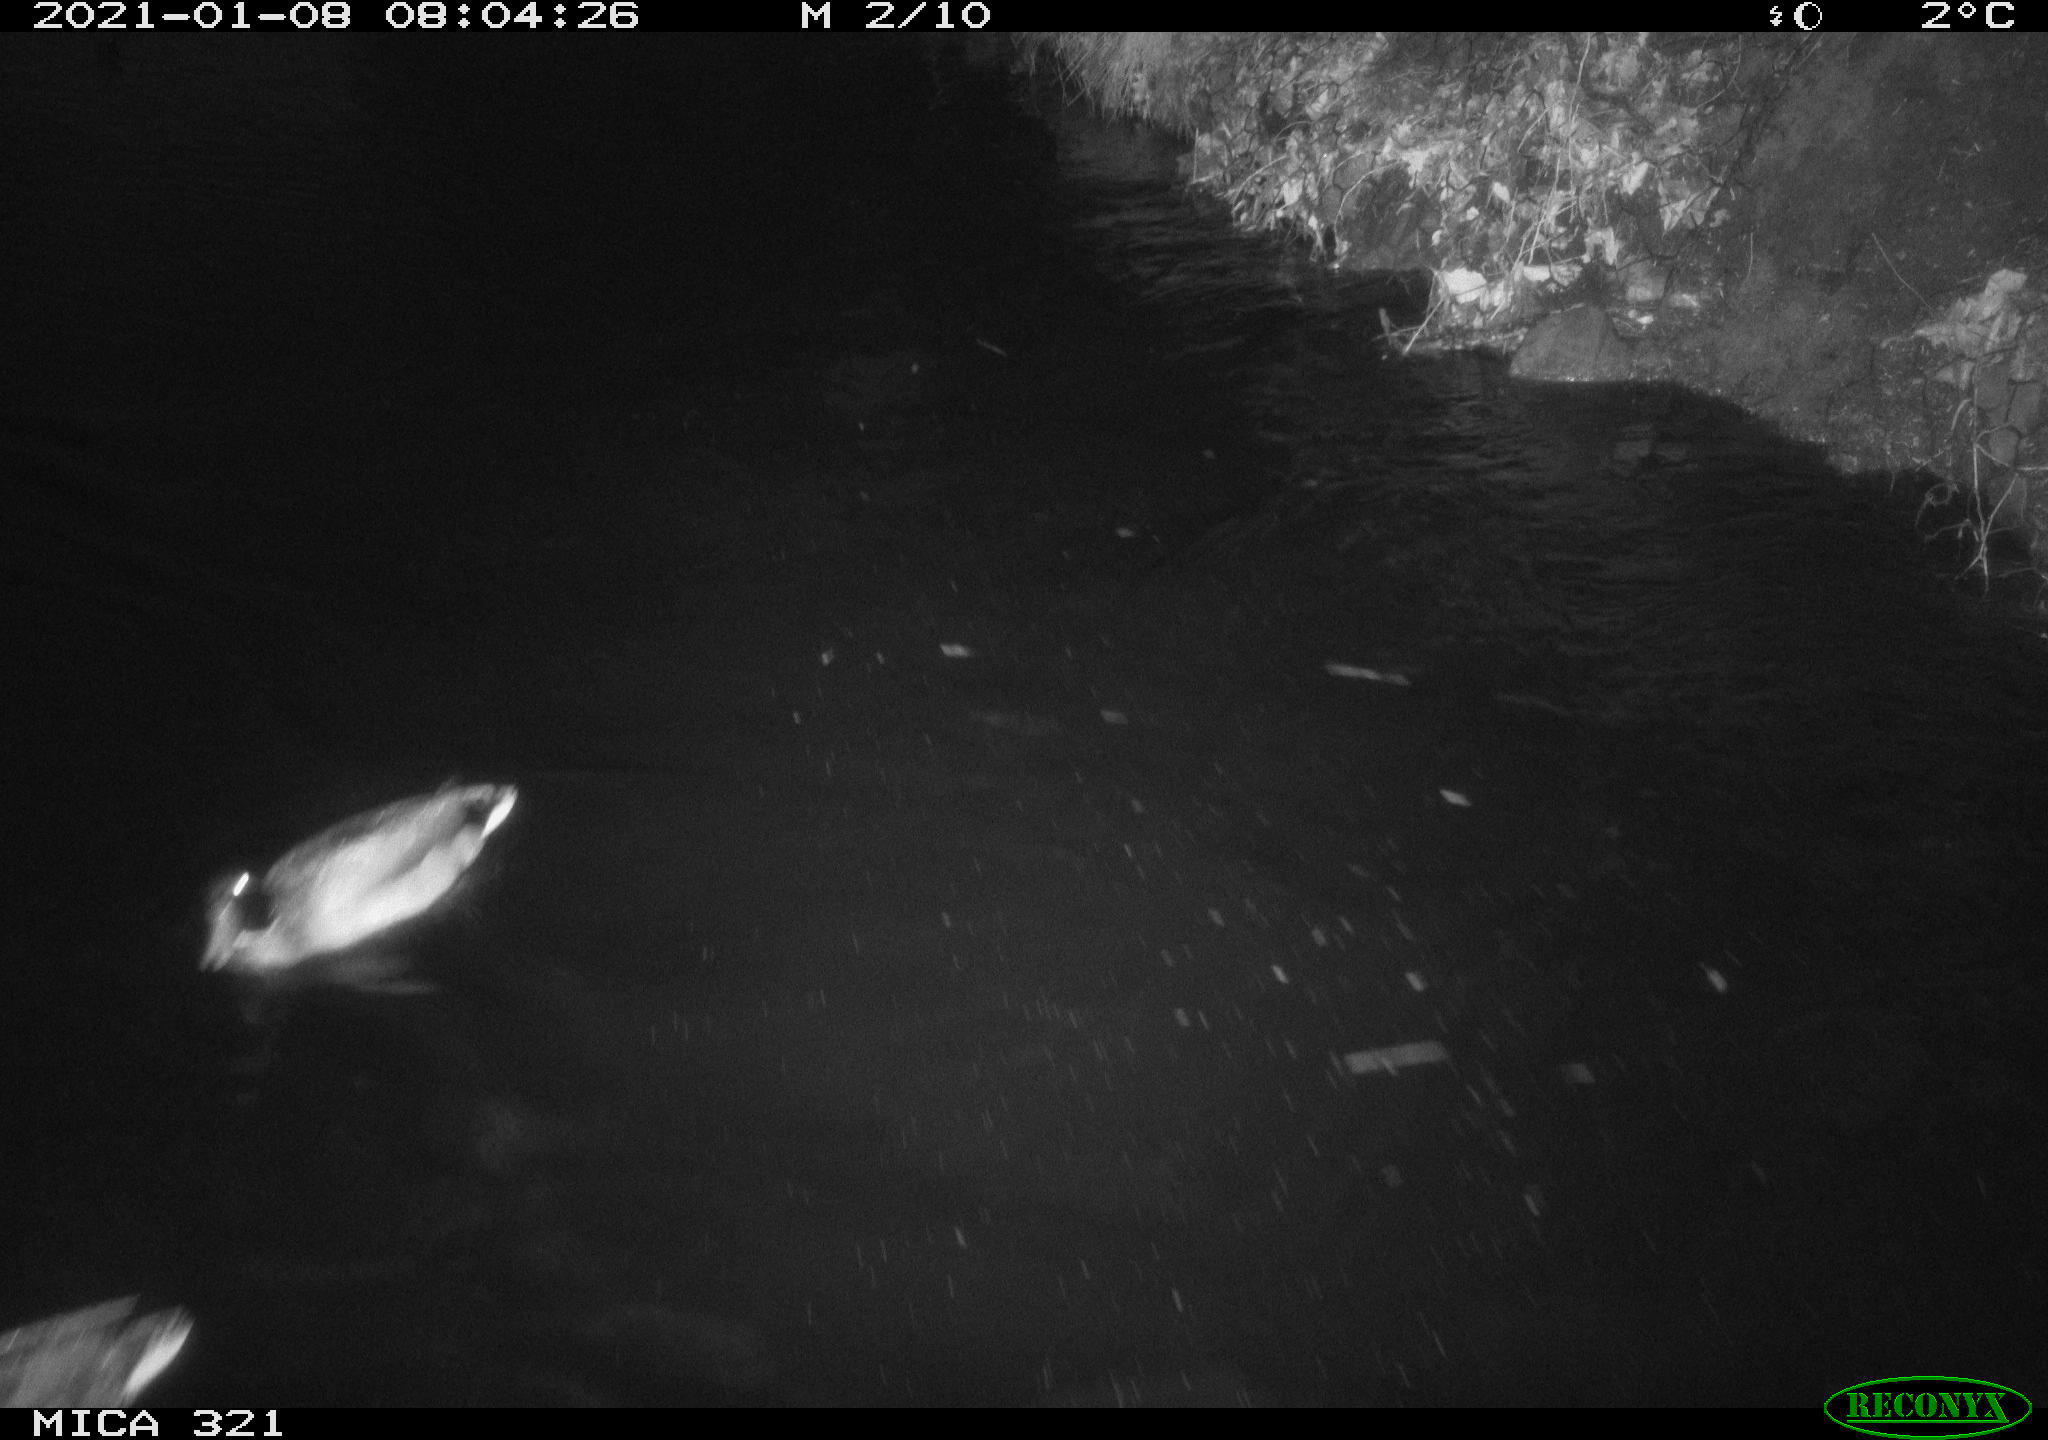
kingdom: Animalia
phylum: Chordata
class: Aves
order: Anseriformes
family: Anatidae
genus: Anas
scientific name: Anas platyrhynchos
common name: Mallard
